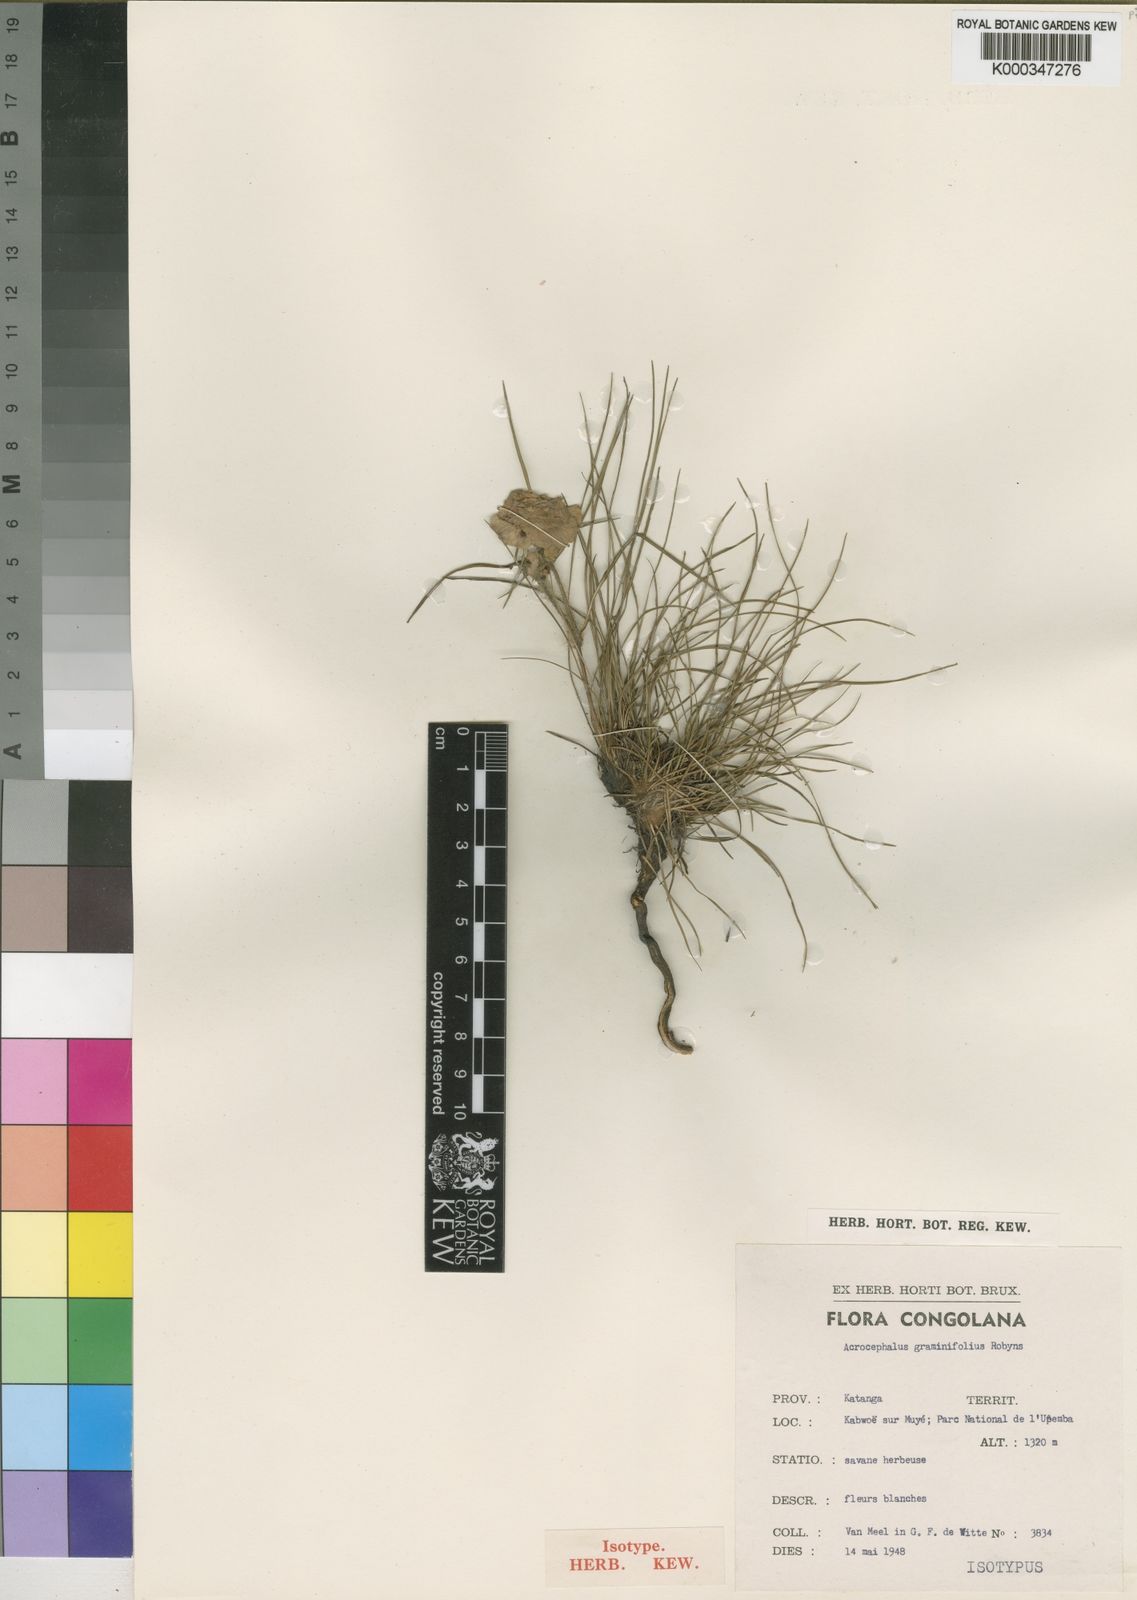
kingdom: Plantae
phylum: Tracheophyta
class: Magnoliopsida
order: Lamiales
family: Lamiaceae
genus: Haumaniastrum
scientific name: Haumaniastrum graminifolium
